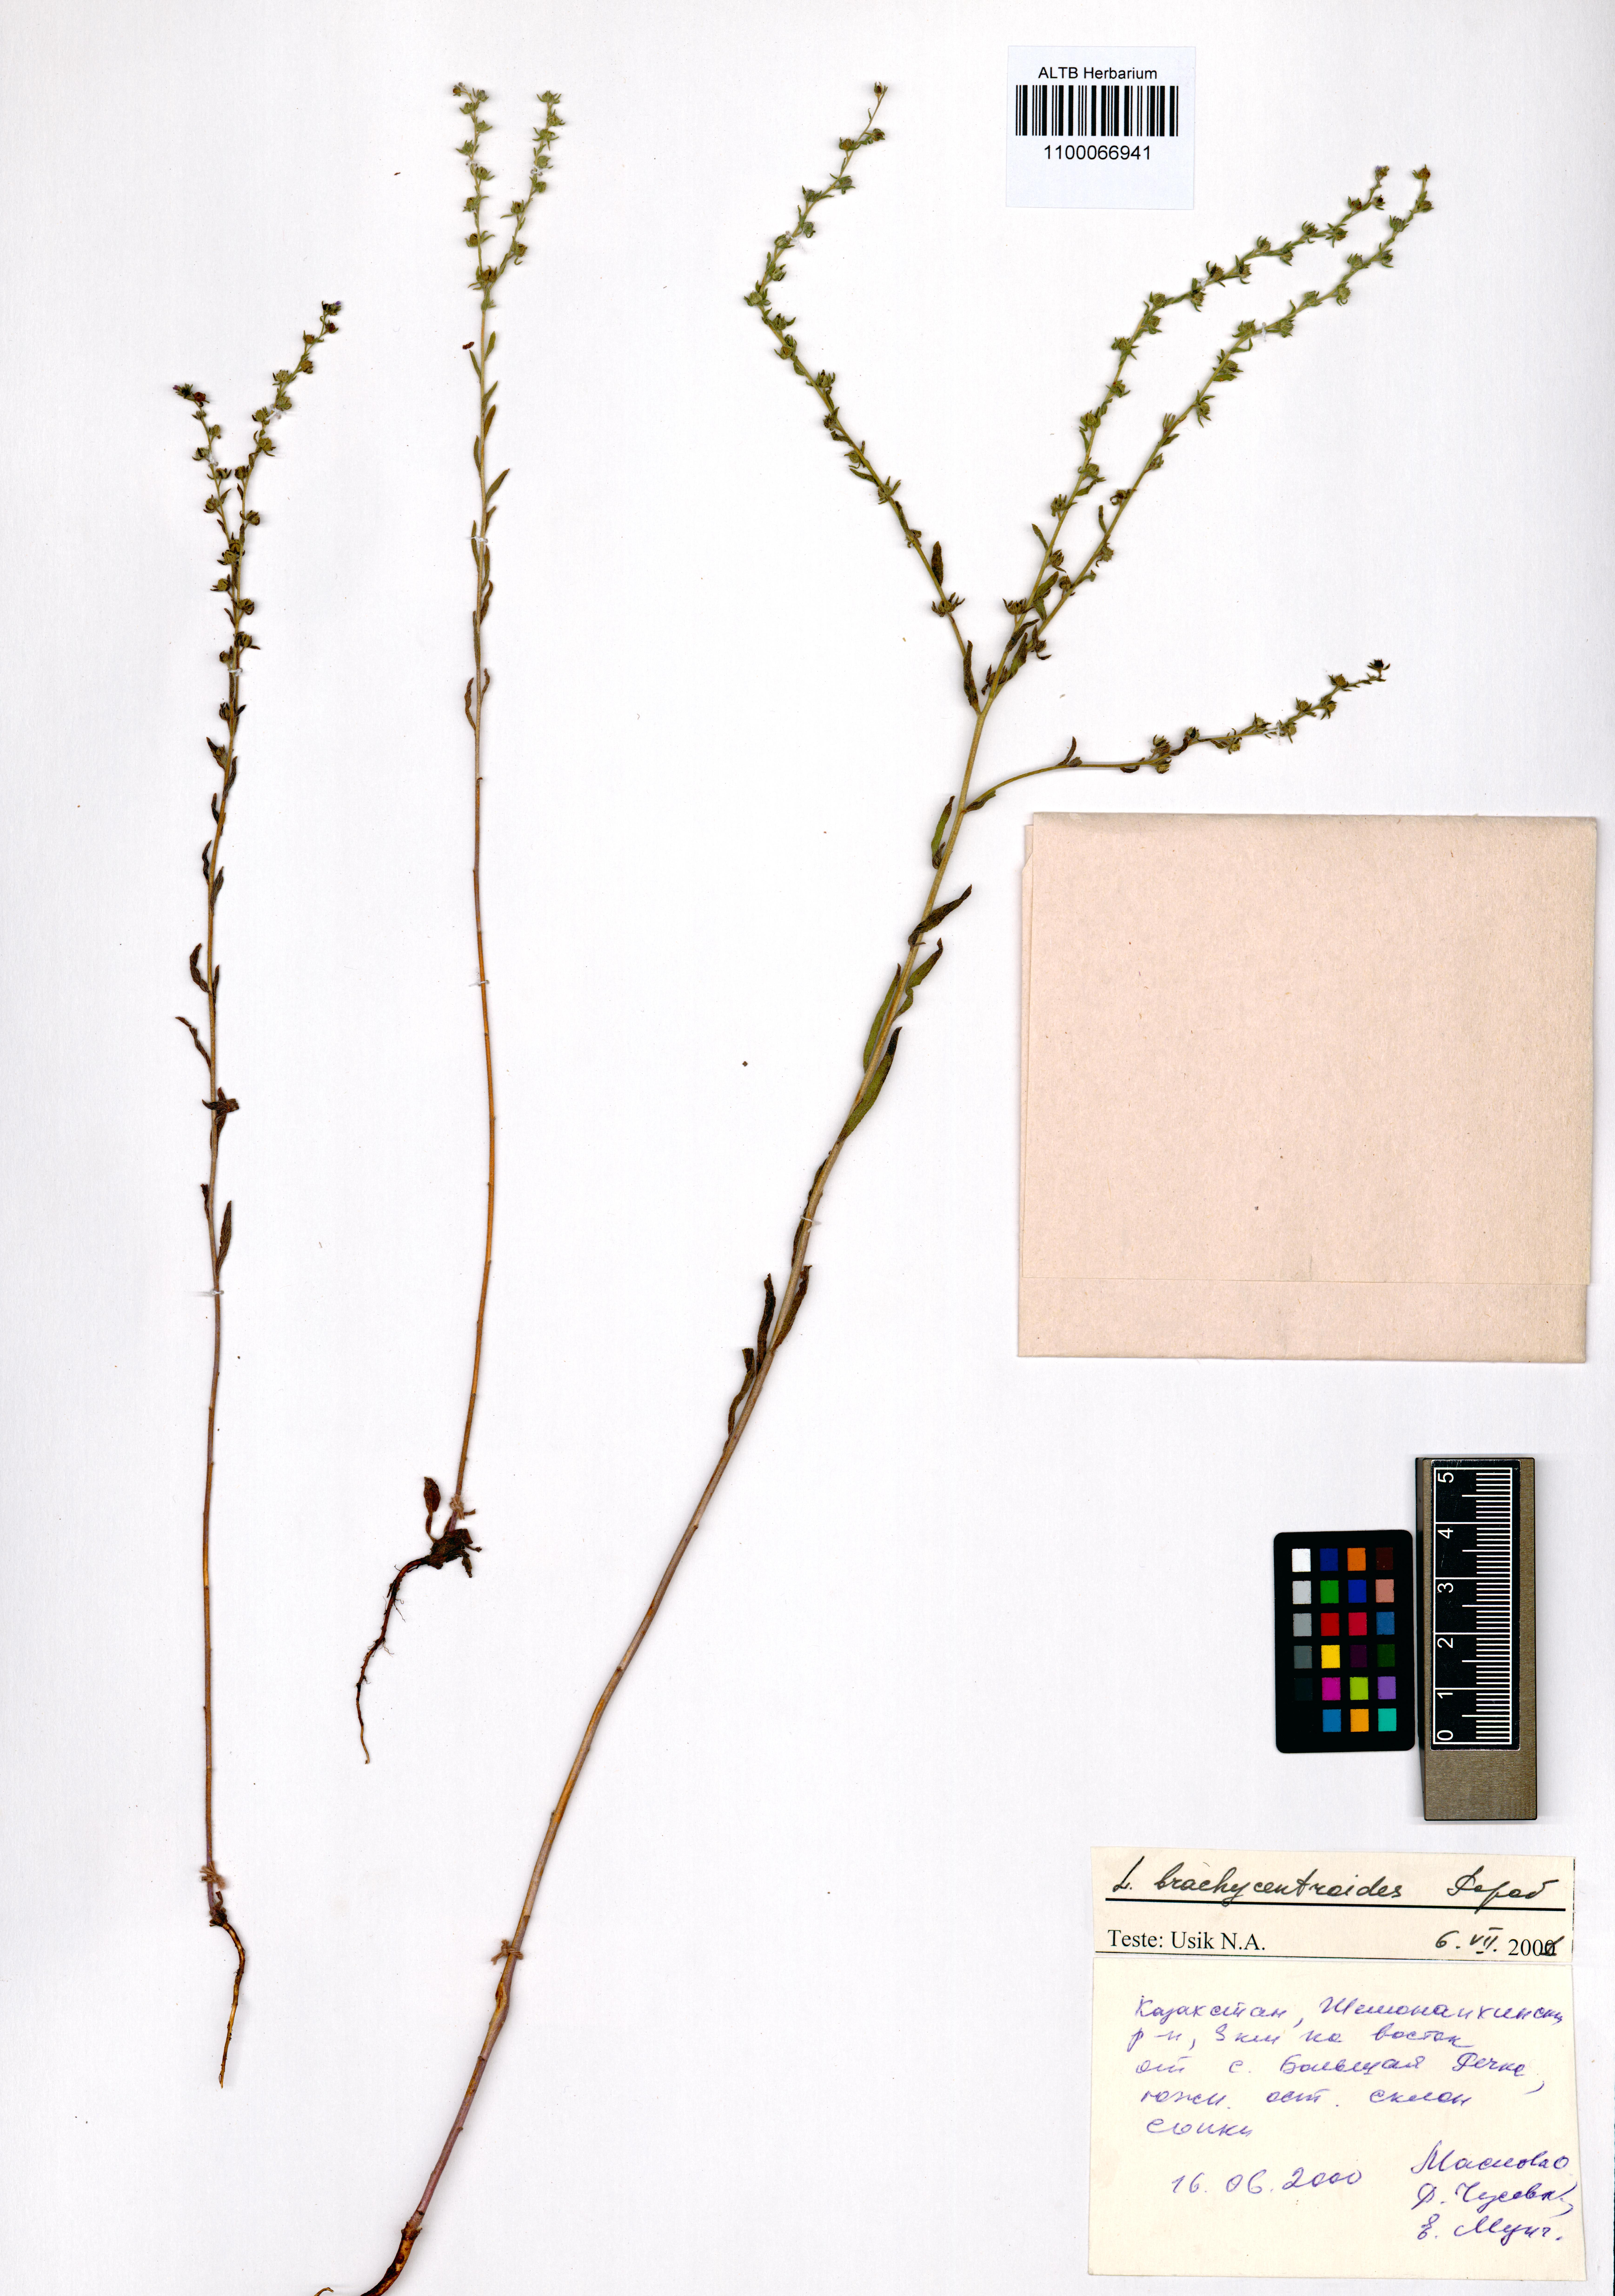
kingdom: Plantae
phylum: Tracheophyta
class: Magnoliopsida
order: Boraginales
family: Boraginaceae
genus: Lappula
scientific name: Lappula brachycentroides
